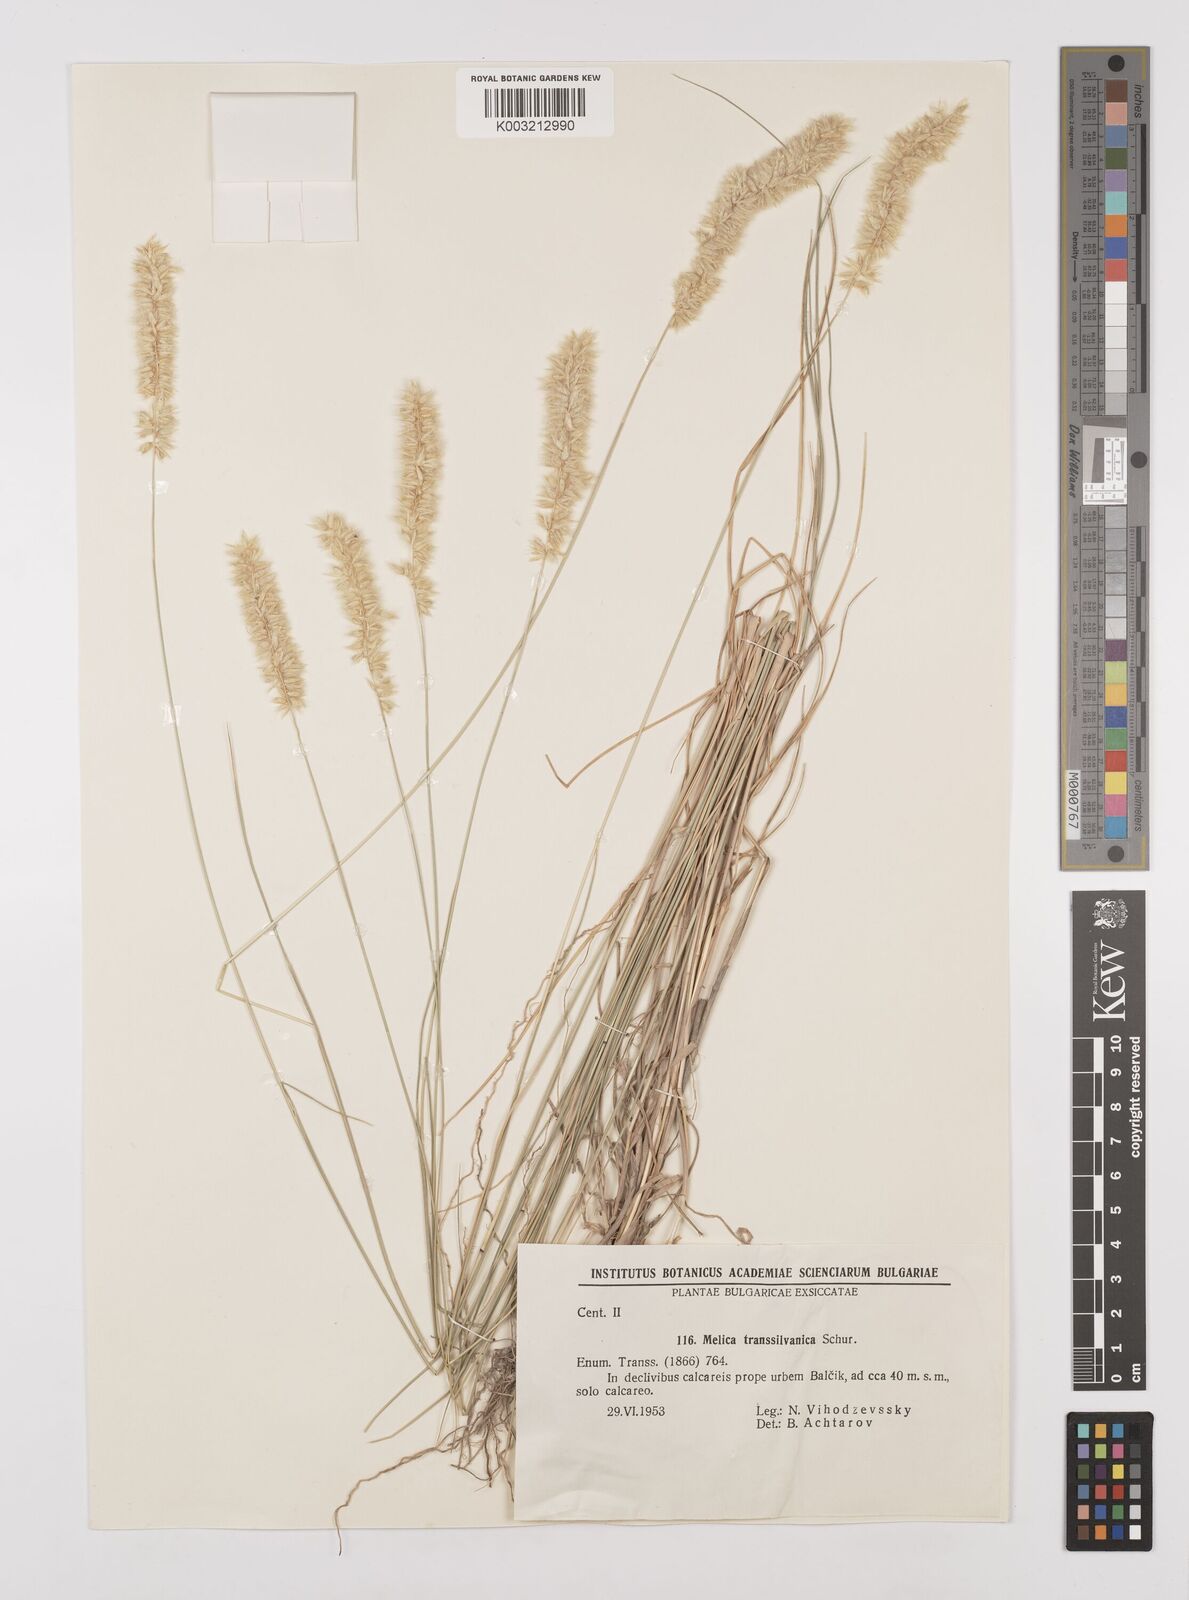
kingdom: Plantae
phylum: Tracheophyta
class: Liliopsida
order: Poales
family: Poaceae
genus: Melica
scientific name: Melica transsilvanica
